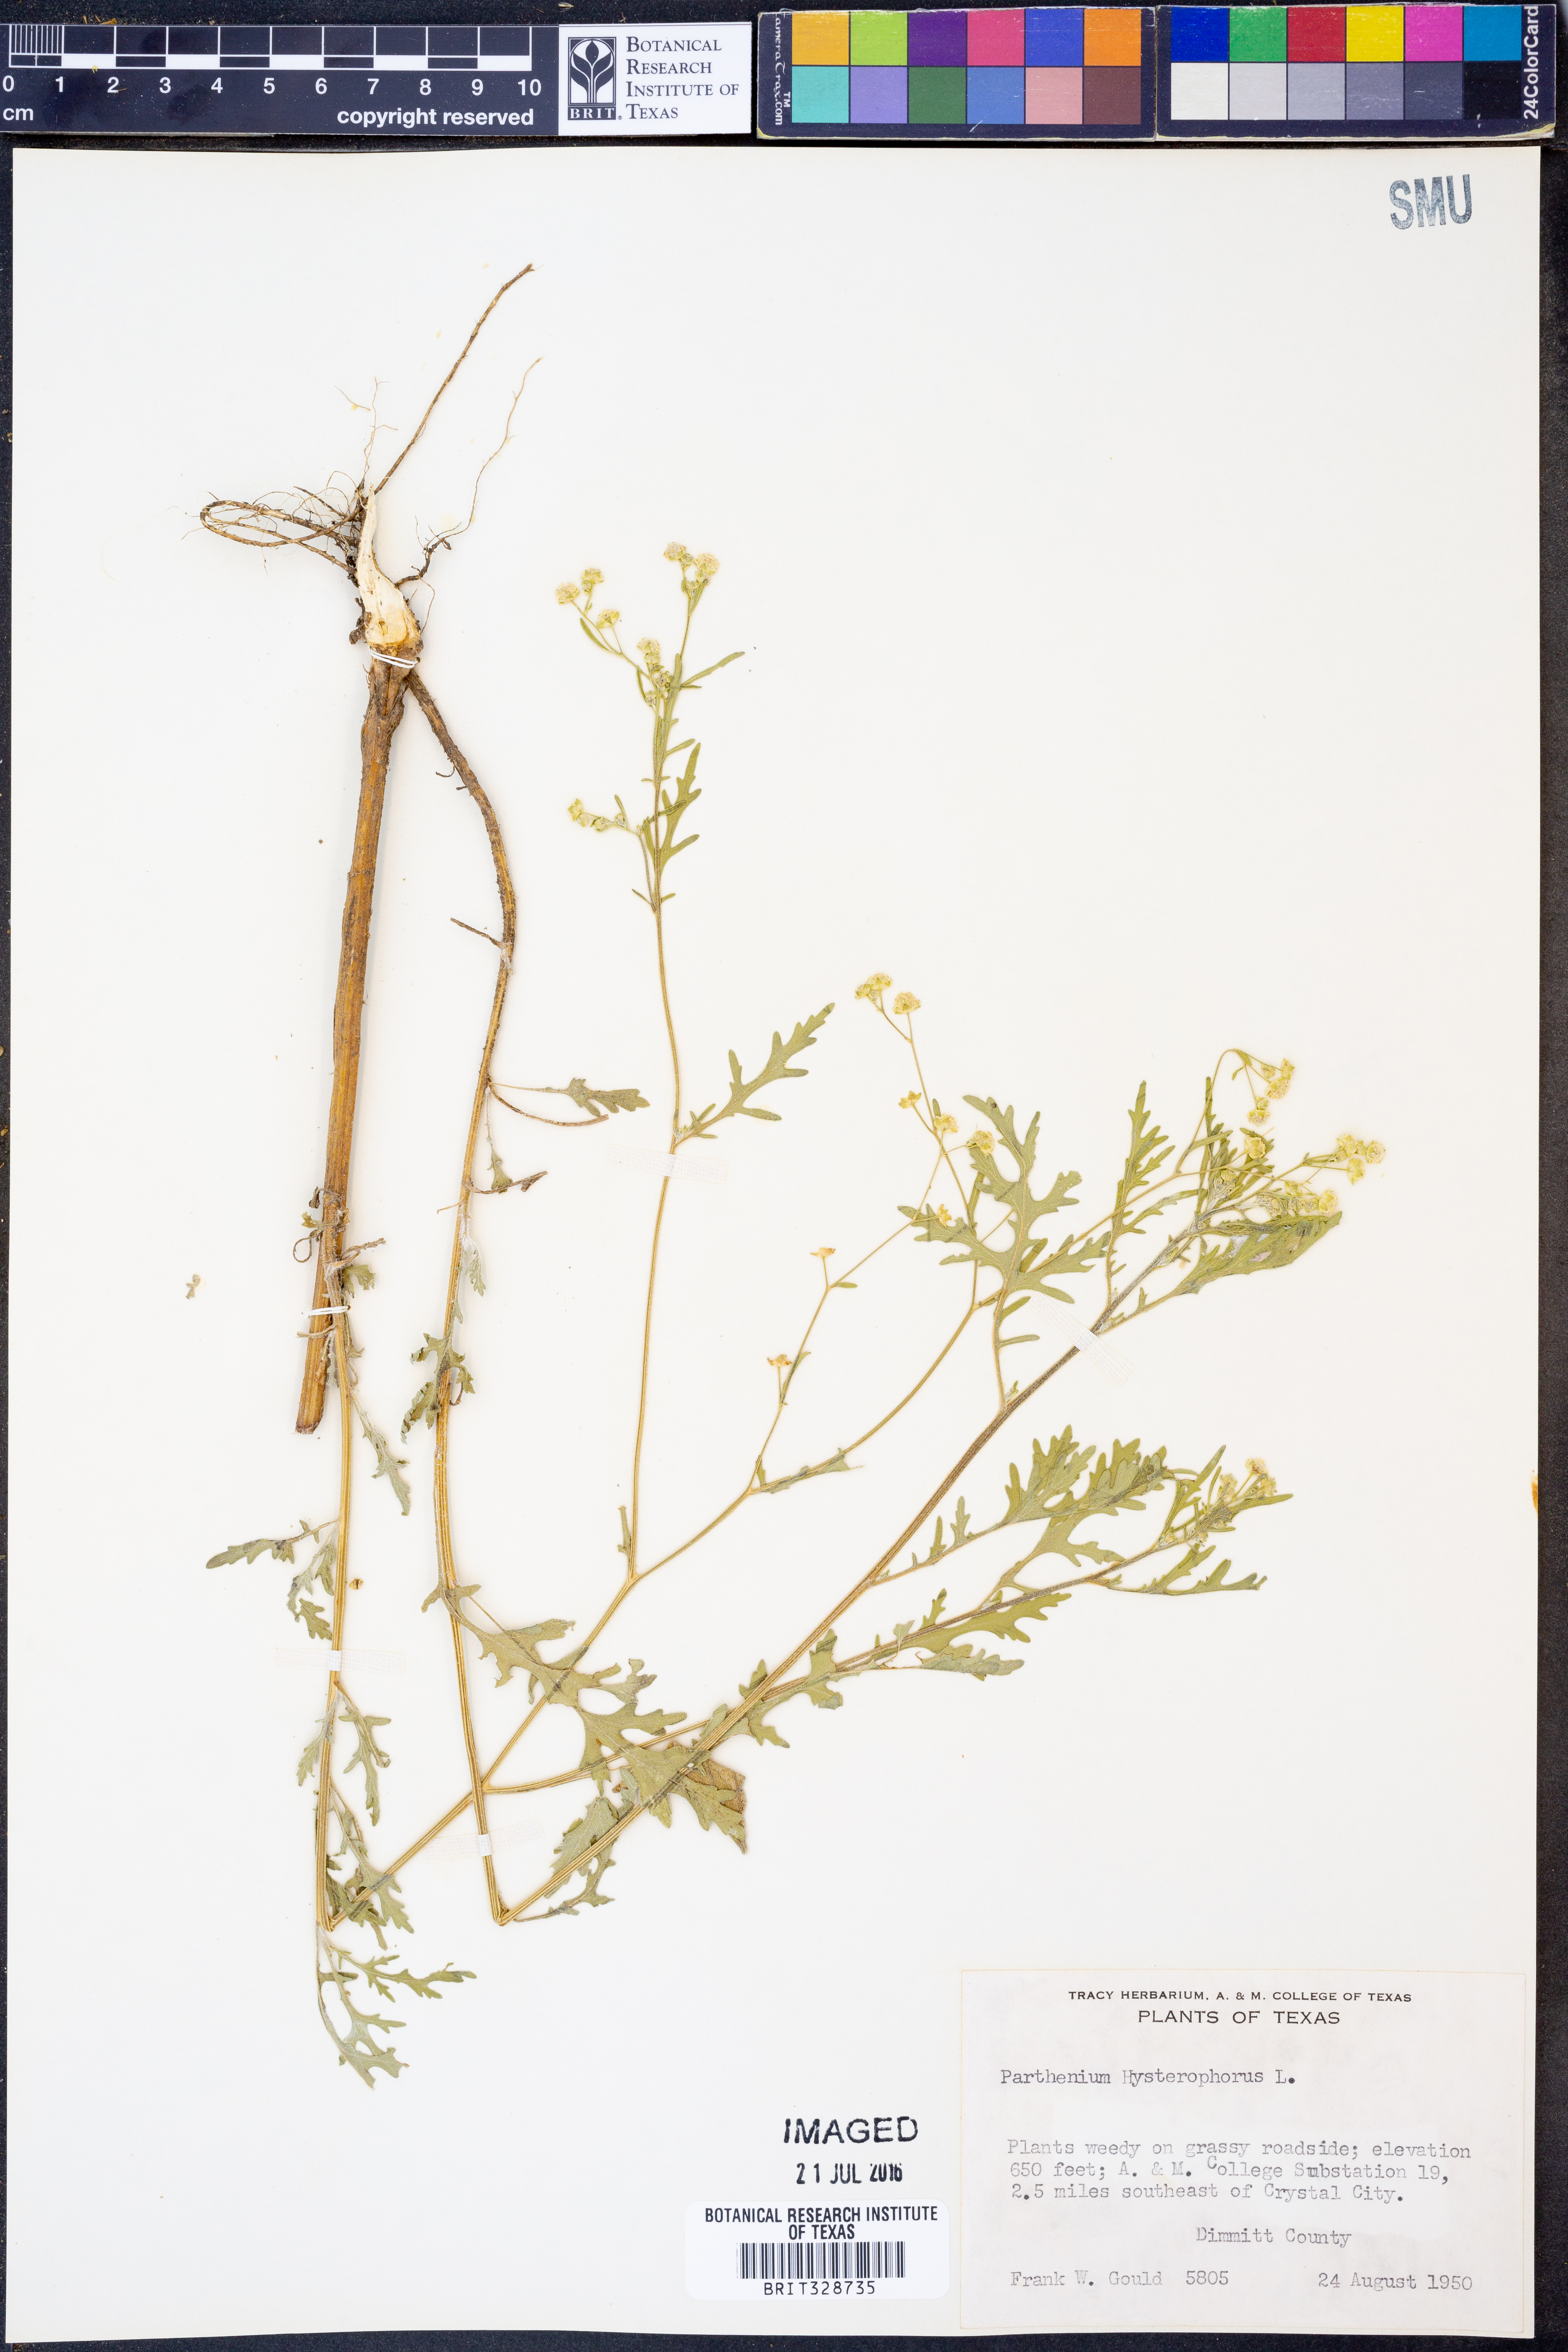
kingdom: Plantae
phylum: Tracheophyta
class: Magnoliopsida
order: Asterales
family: Asteraceae
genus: Parthenium
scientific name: Parthenium hysterophorus
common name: Santa maria feverfew
